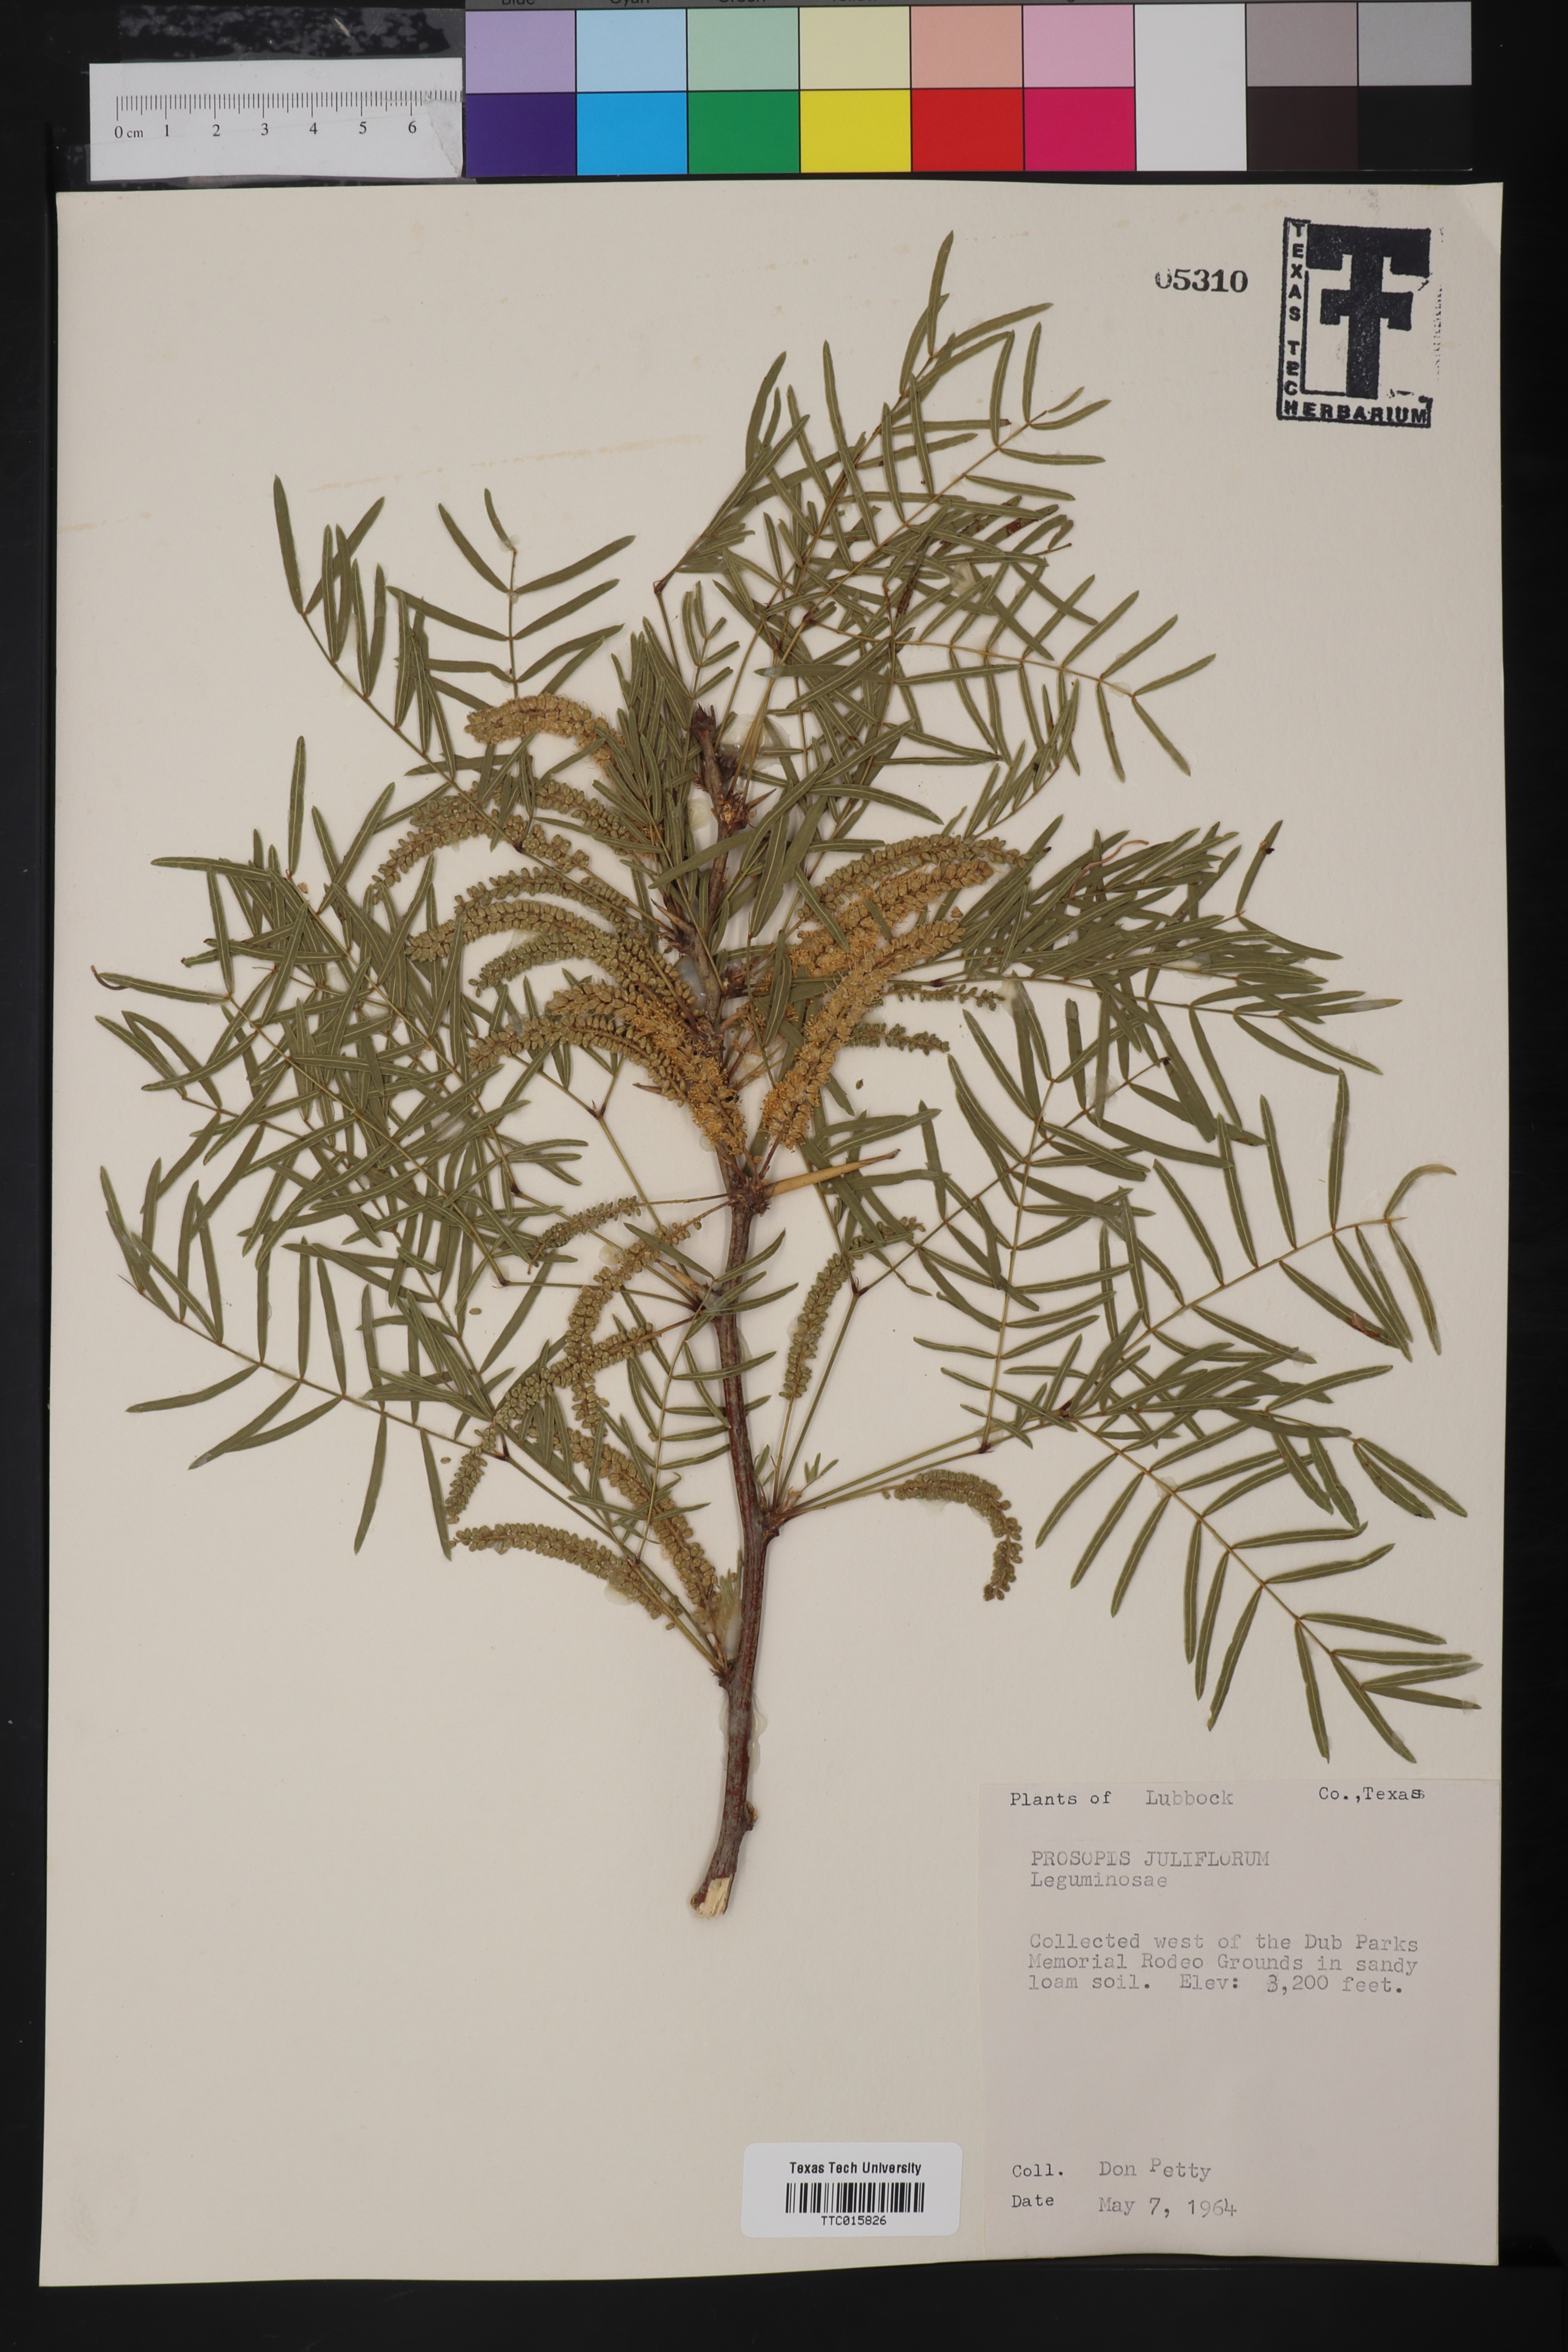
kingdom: Plantae
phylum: Tracheophyta
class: Magnoliopsida
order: Fabales
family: Fabaceae
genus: Prosopis
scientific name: Prosopis juliflora
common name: Mesquite
